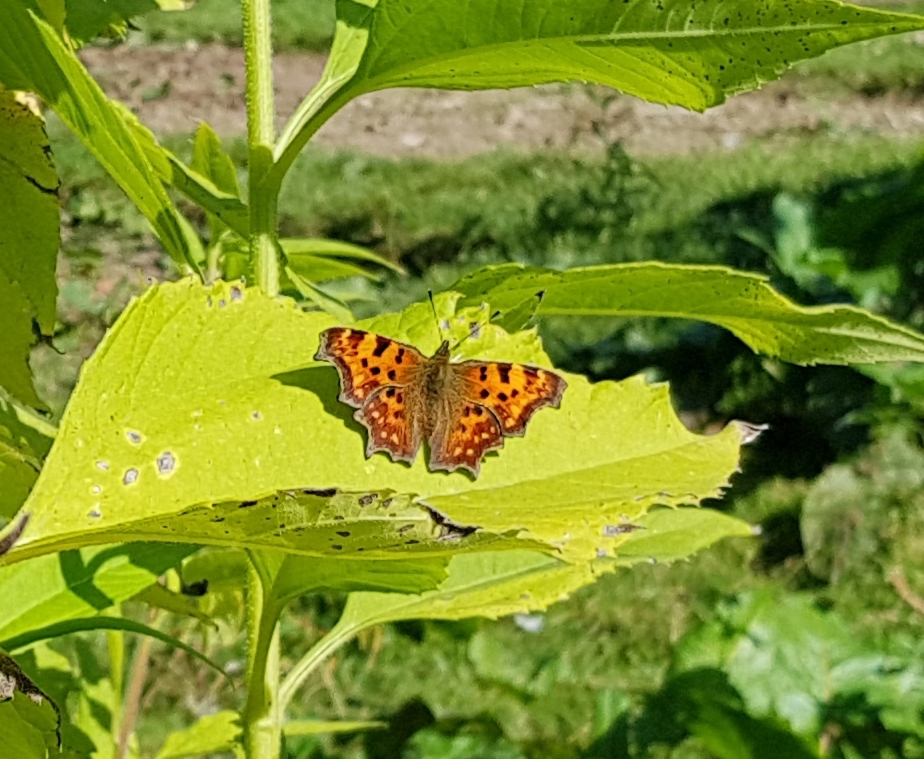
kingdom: Animalia
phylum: Arthropoda
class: Insecta
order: Lepidoptera
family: Nymphalidae
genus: Polygonia
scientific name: Polygonia c-album
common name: Det hvide C
